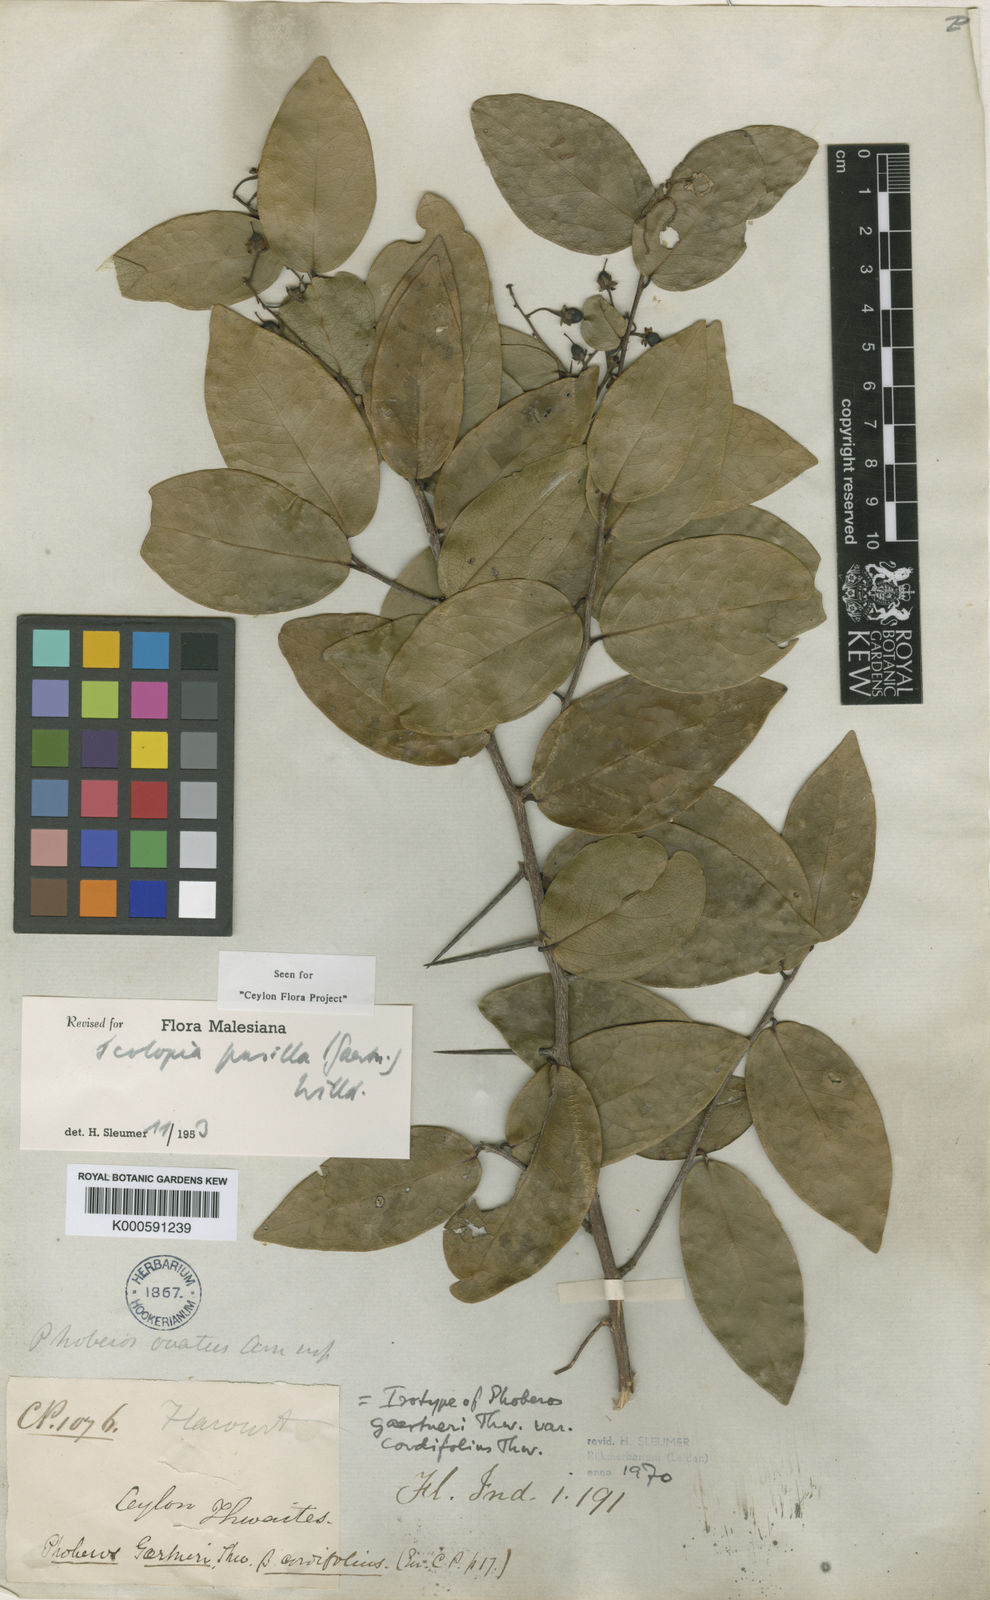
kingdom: Plantae
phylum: Tracheophyta
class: Magnoliopsida
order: Malpighiales
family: Salicaceae
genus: Scolopia
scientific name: Scolopia pusilla
